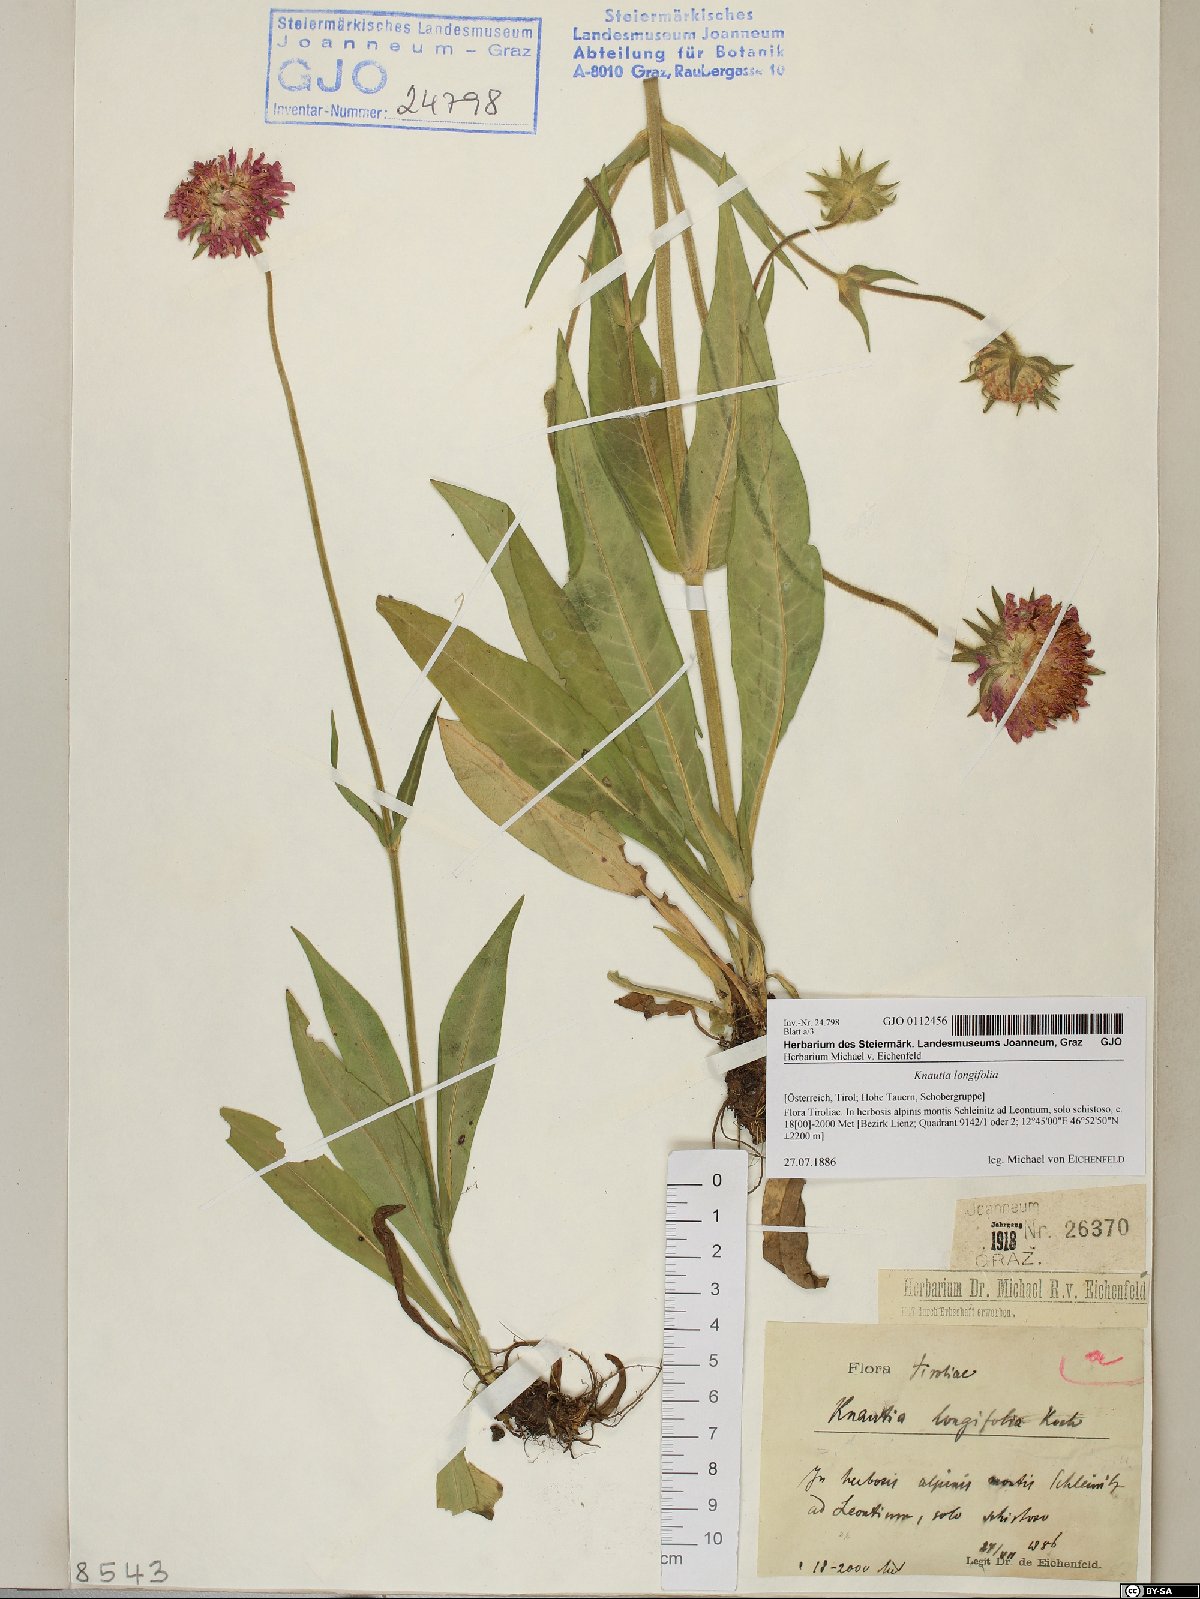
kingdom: Plantae
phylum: Tracheophyta
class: Magnoliopsida
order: Dipsacales
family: Caprifoliaceae
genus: Knautia
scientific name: Knautia longifolia
